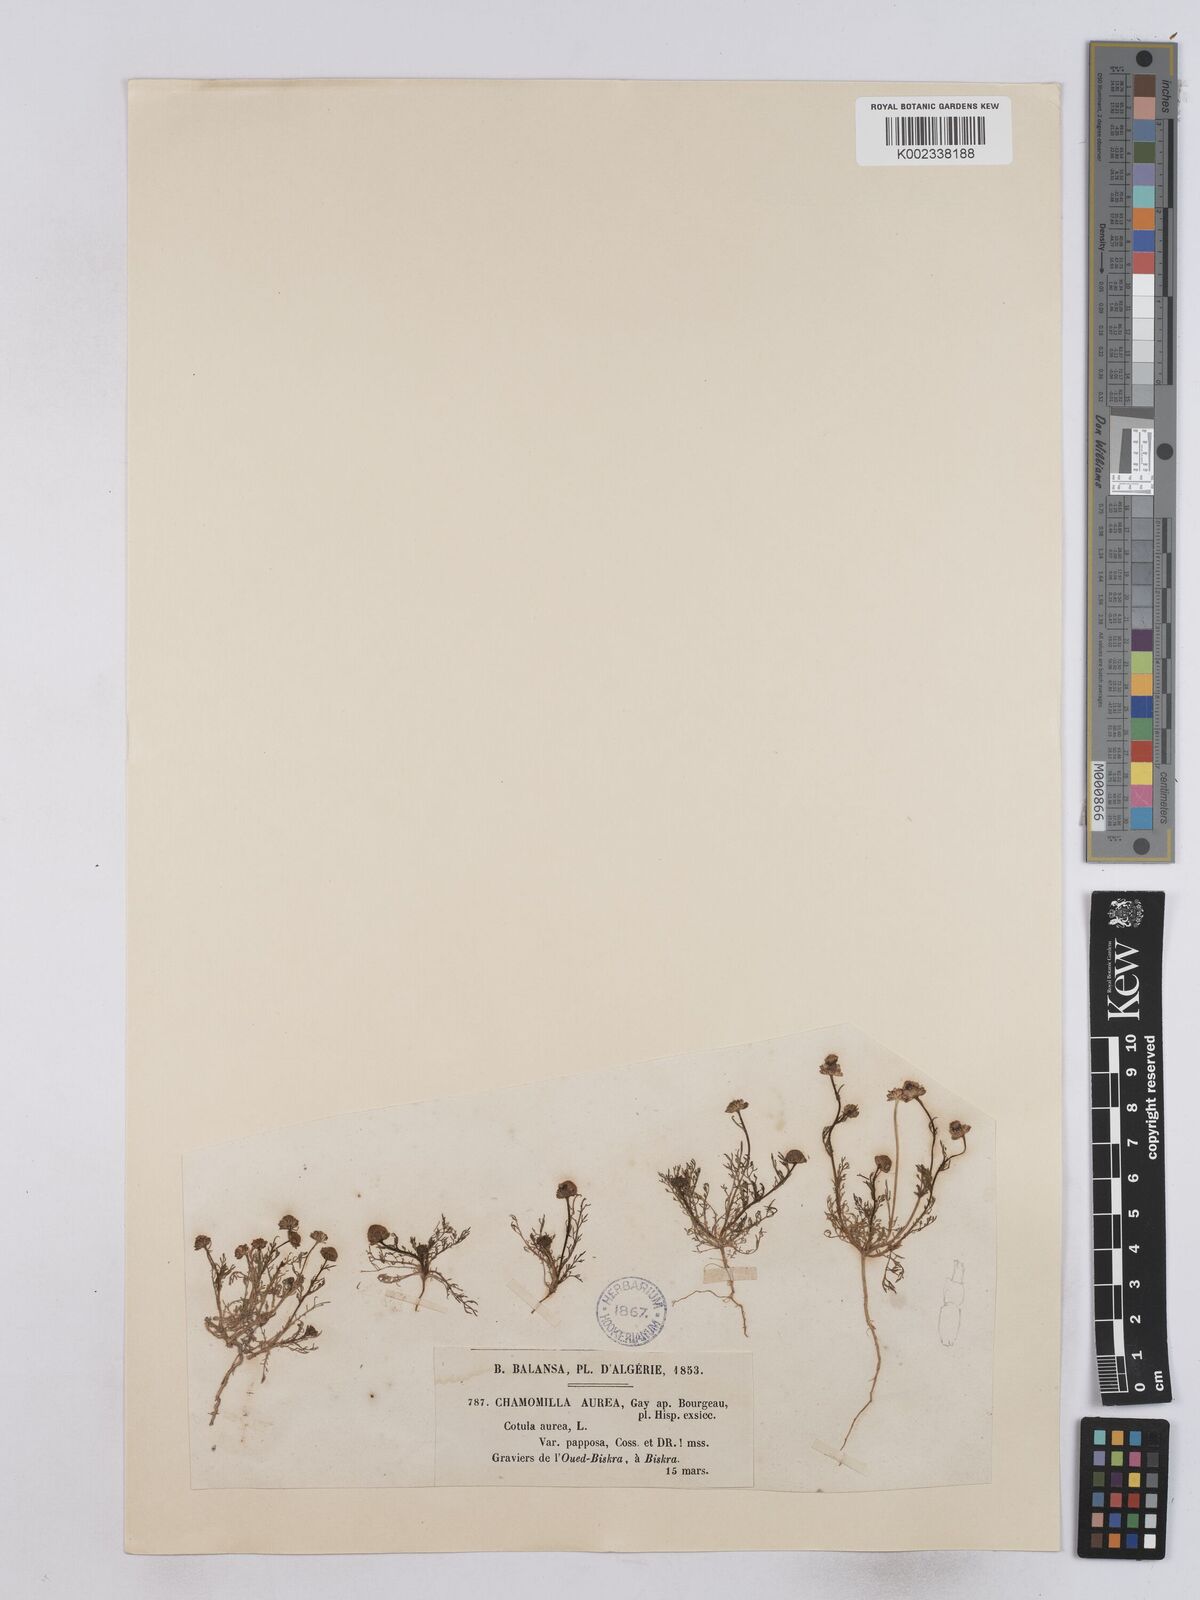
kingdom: Plantae
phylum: Tracheophyta
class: Magnoliopsida
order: Asterales
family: Asteraceae
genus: Matricaria
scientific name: Matricaria aurea
